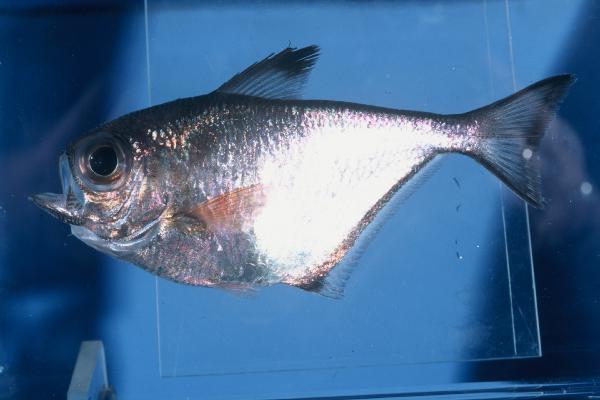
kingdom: Animalia
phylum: Chordata
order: Perciformes
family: Pempheridae
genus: Pempheris
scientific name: Pempheris connelli
